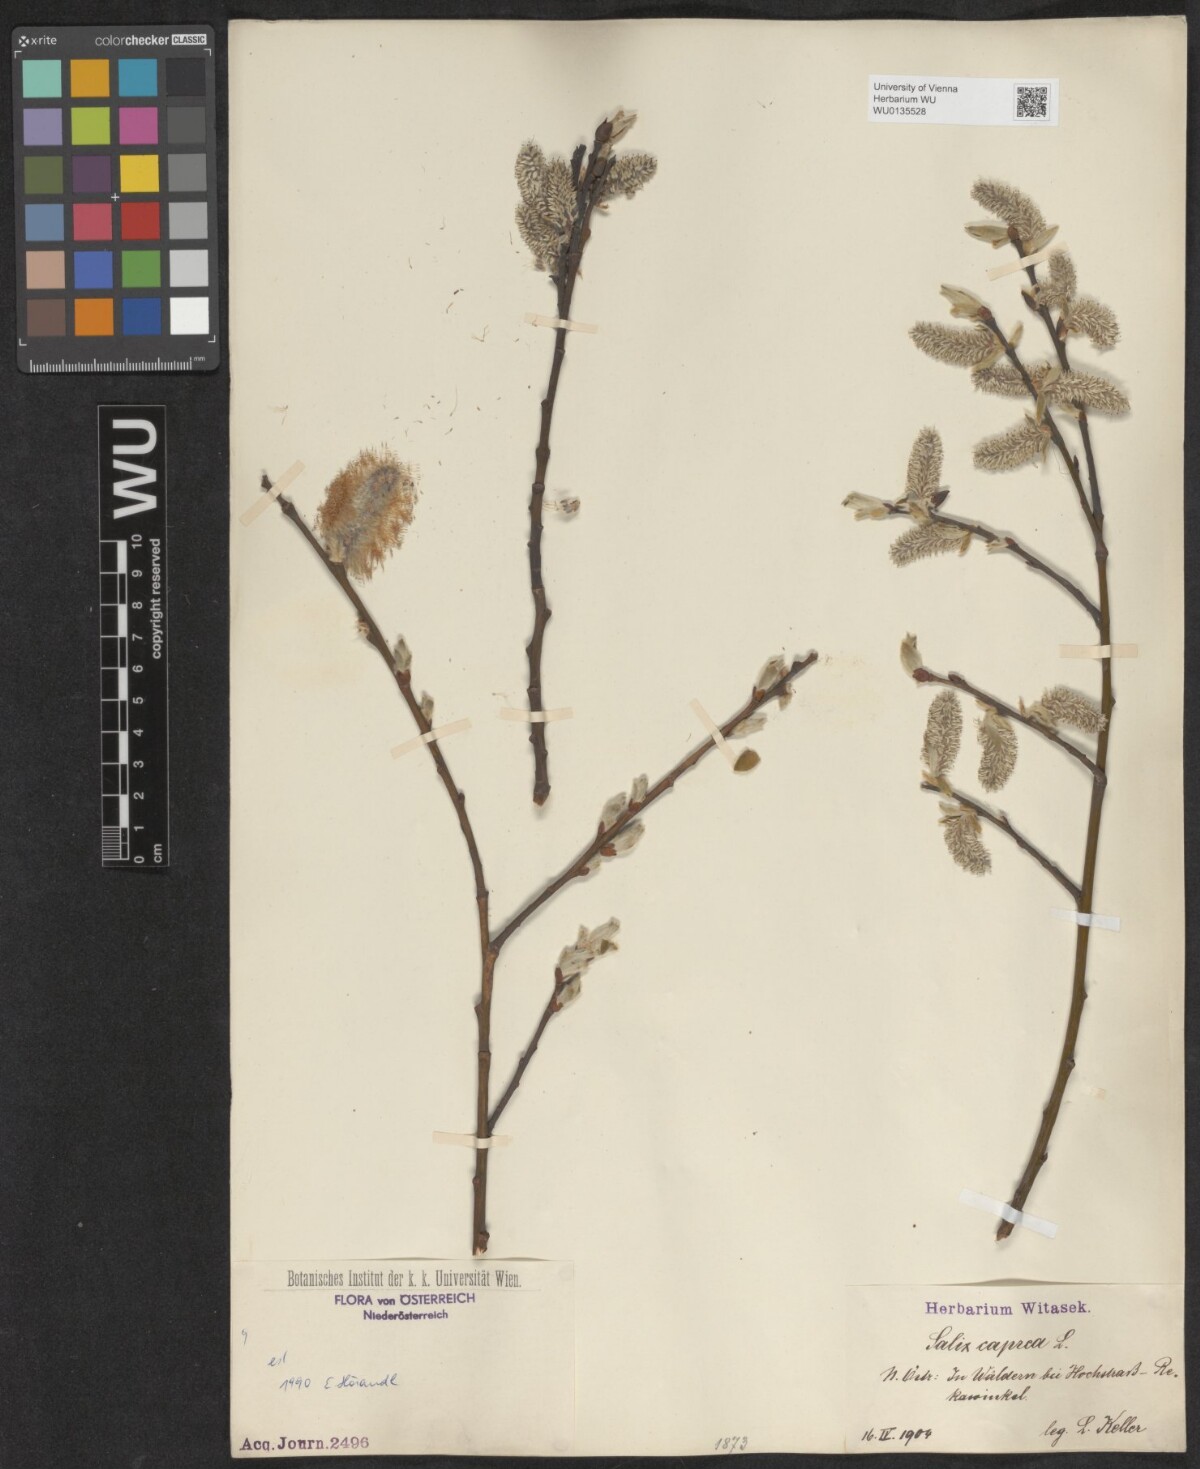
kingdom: Plantae
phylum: Tracheophyta
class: Magnoliopsida
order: Malpighiales
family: Salicaceae
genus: Salix
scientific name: Salix caprea
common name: Goat willow
